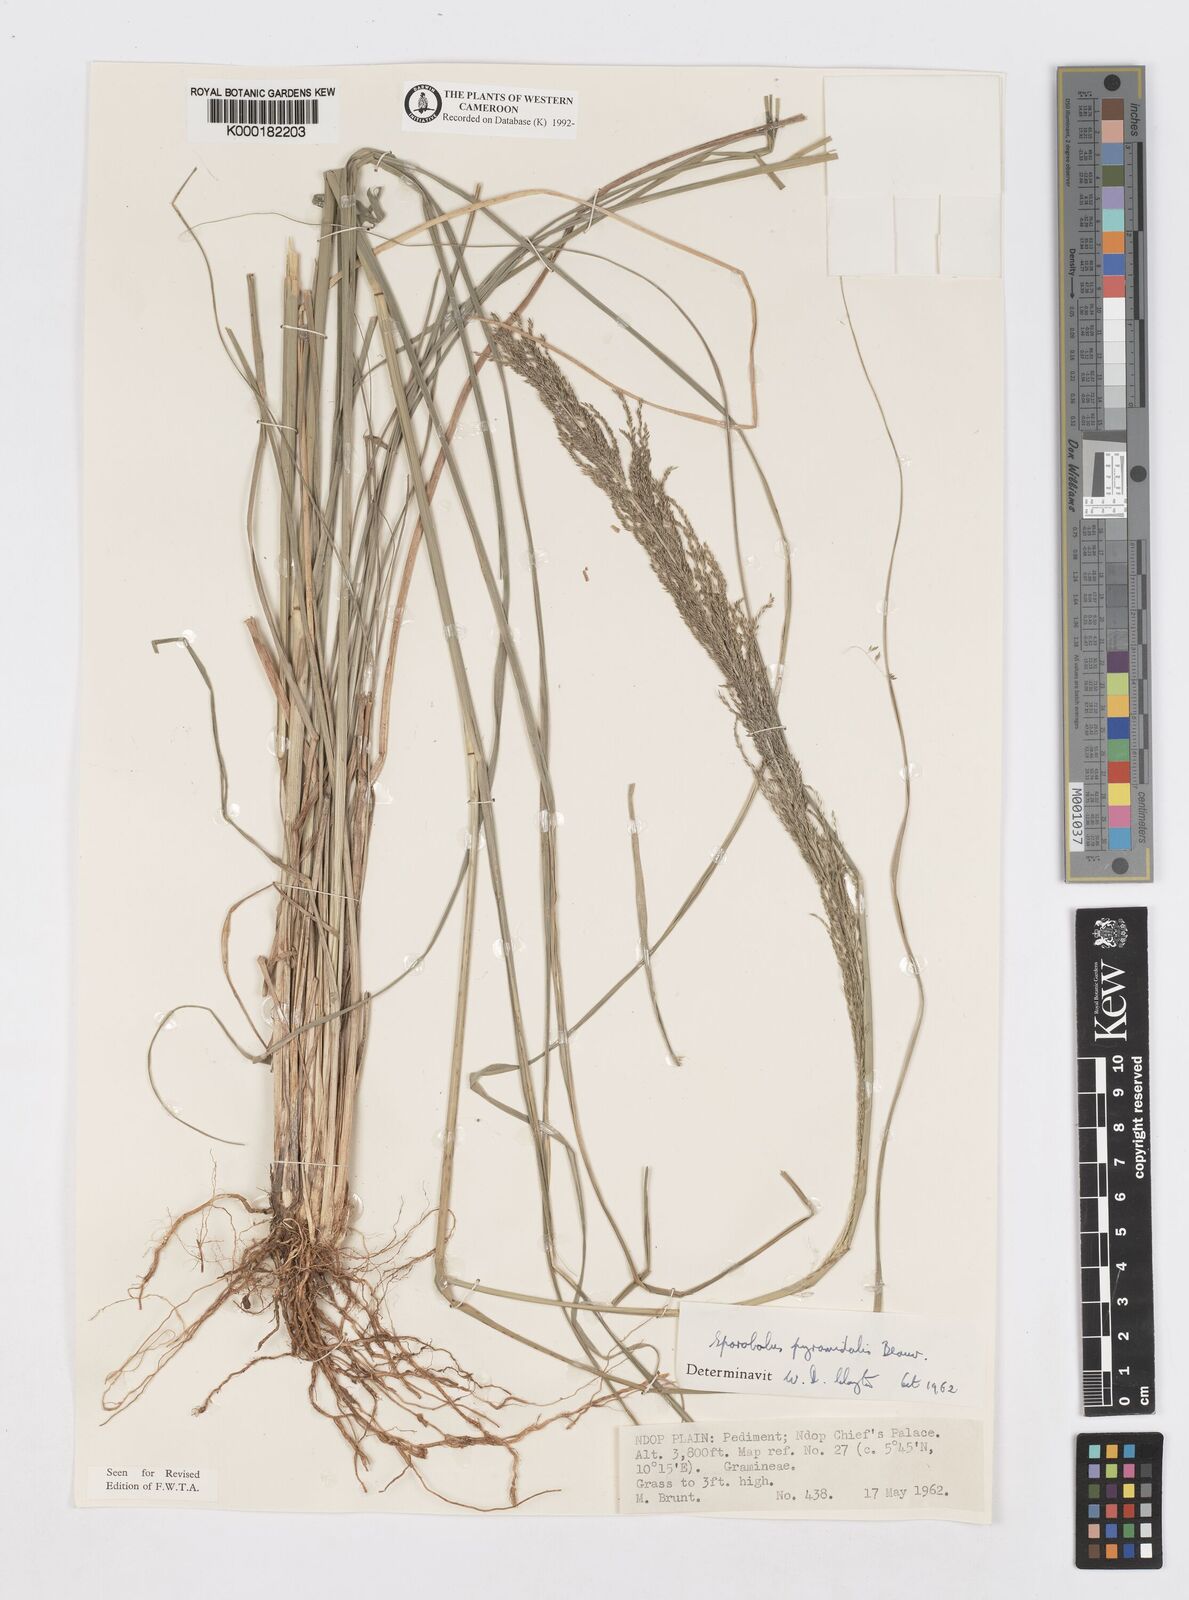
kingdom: Plantae
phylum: Tracheophyta
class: Liliopsida
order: Poales
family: Poaceae
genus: Sporobolus
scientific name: Sporobolus pyramidalis
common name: West indian dropseed
